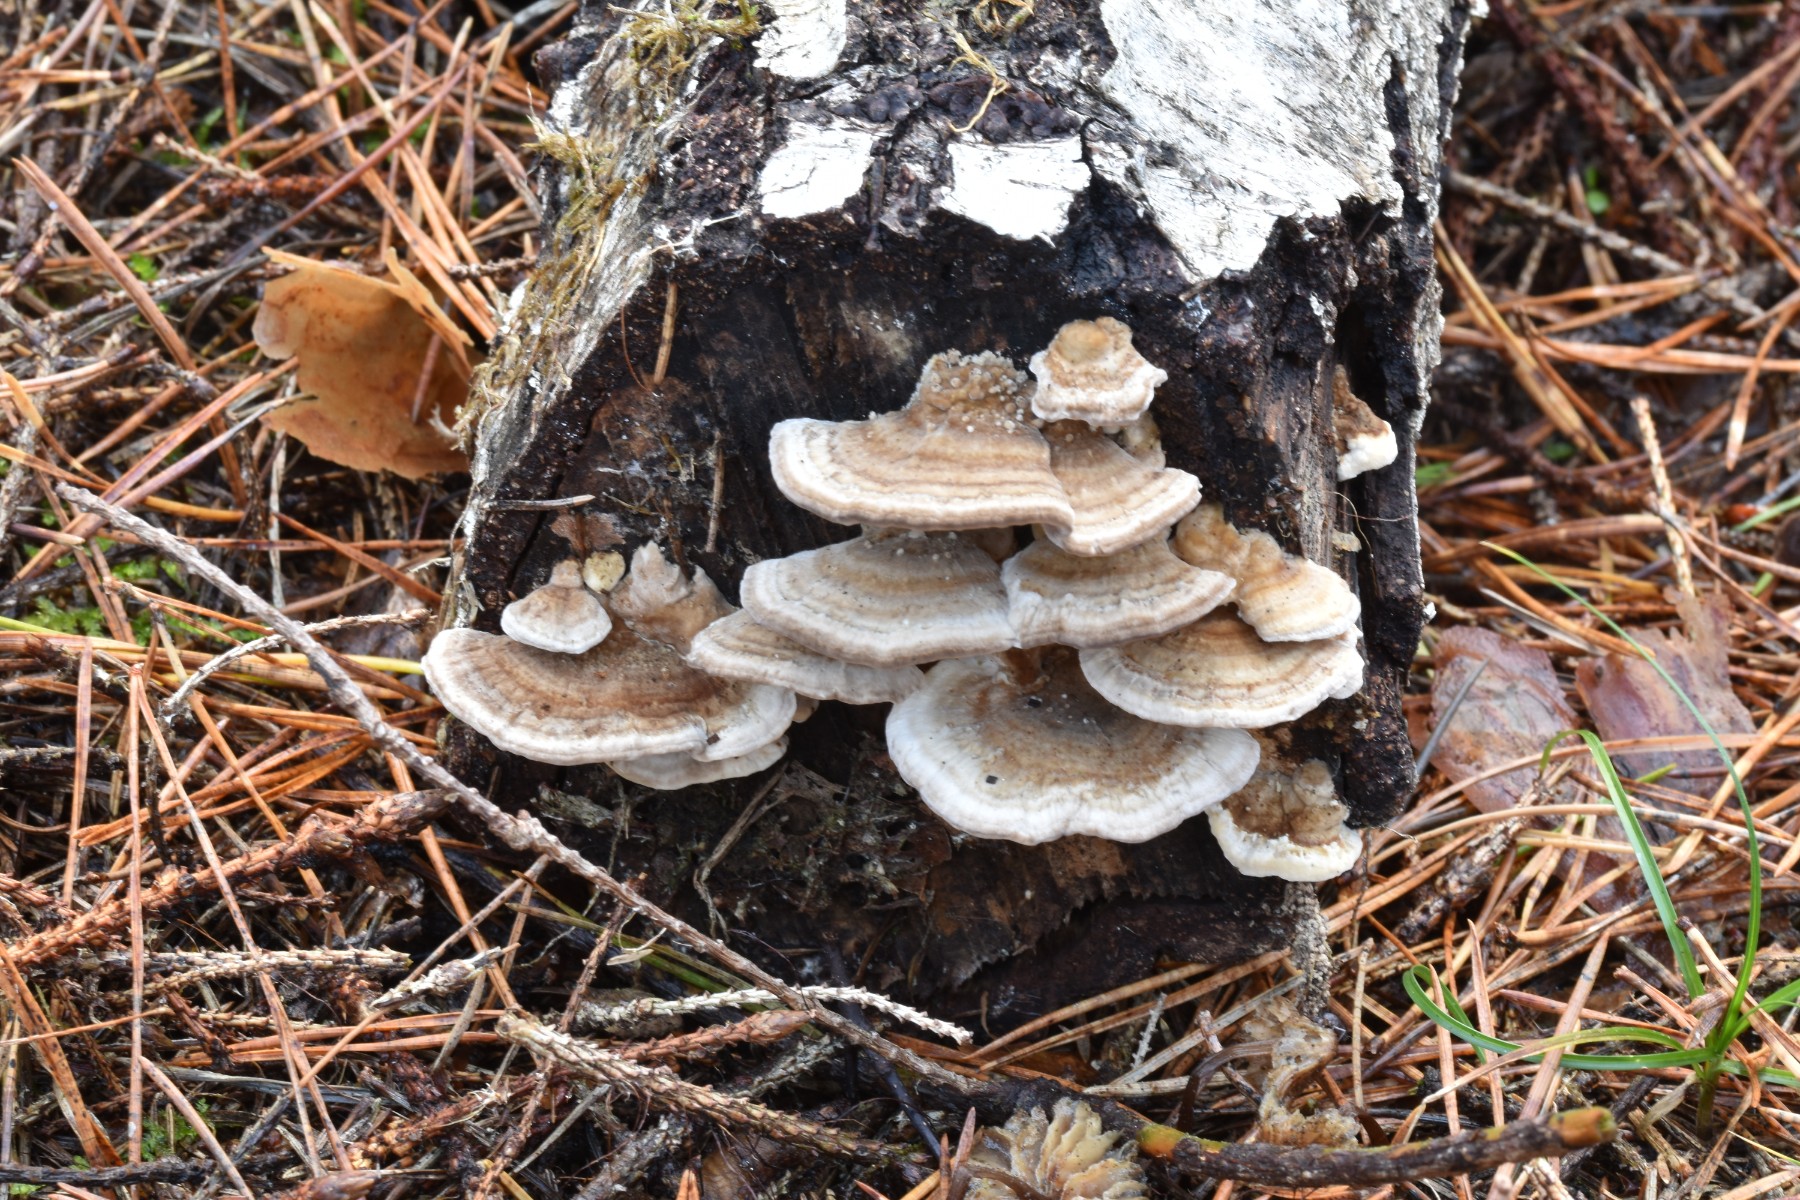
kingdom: Fungi
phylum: Basidiomycota
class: Agaricomycetes
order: Polyporales
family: Polyporaceae
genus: Trametes
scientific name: Trametes ochracea
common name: bæltet læderporesvamp
